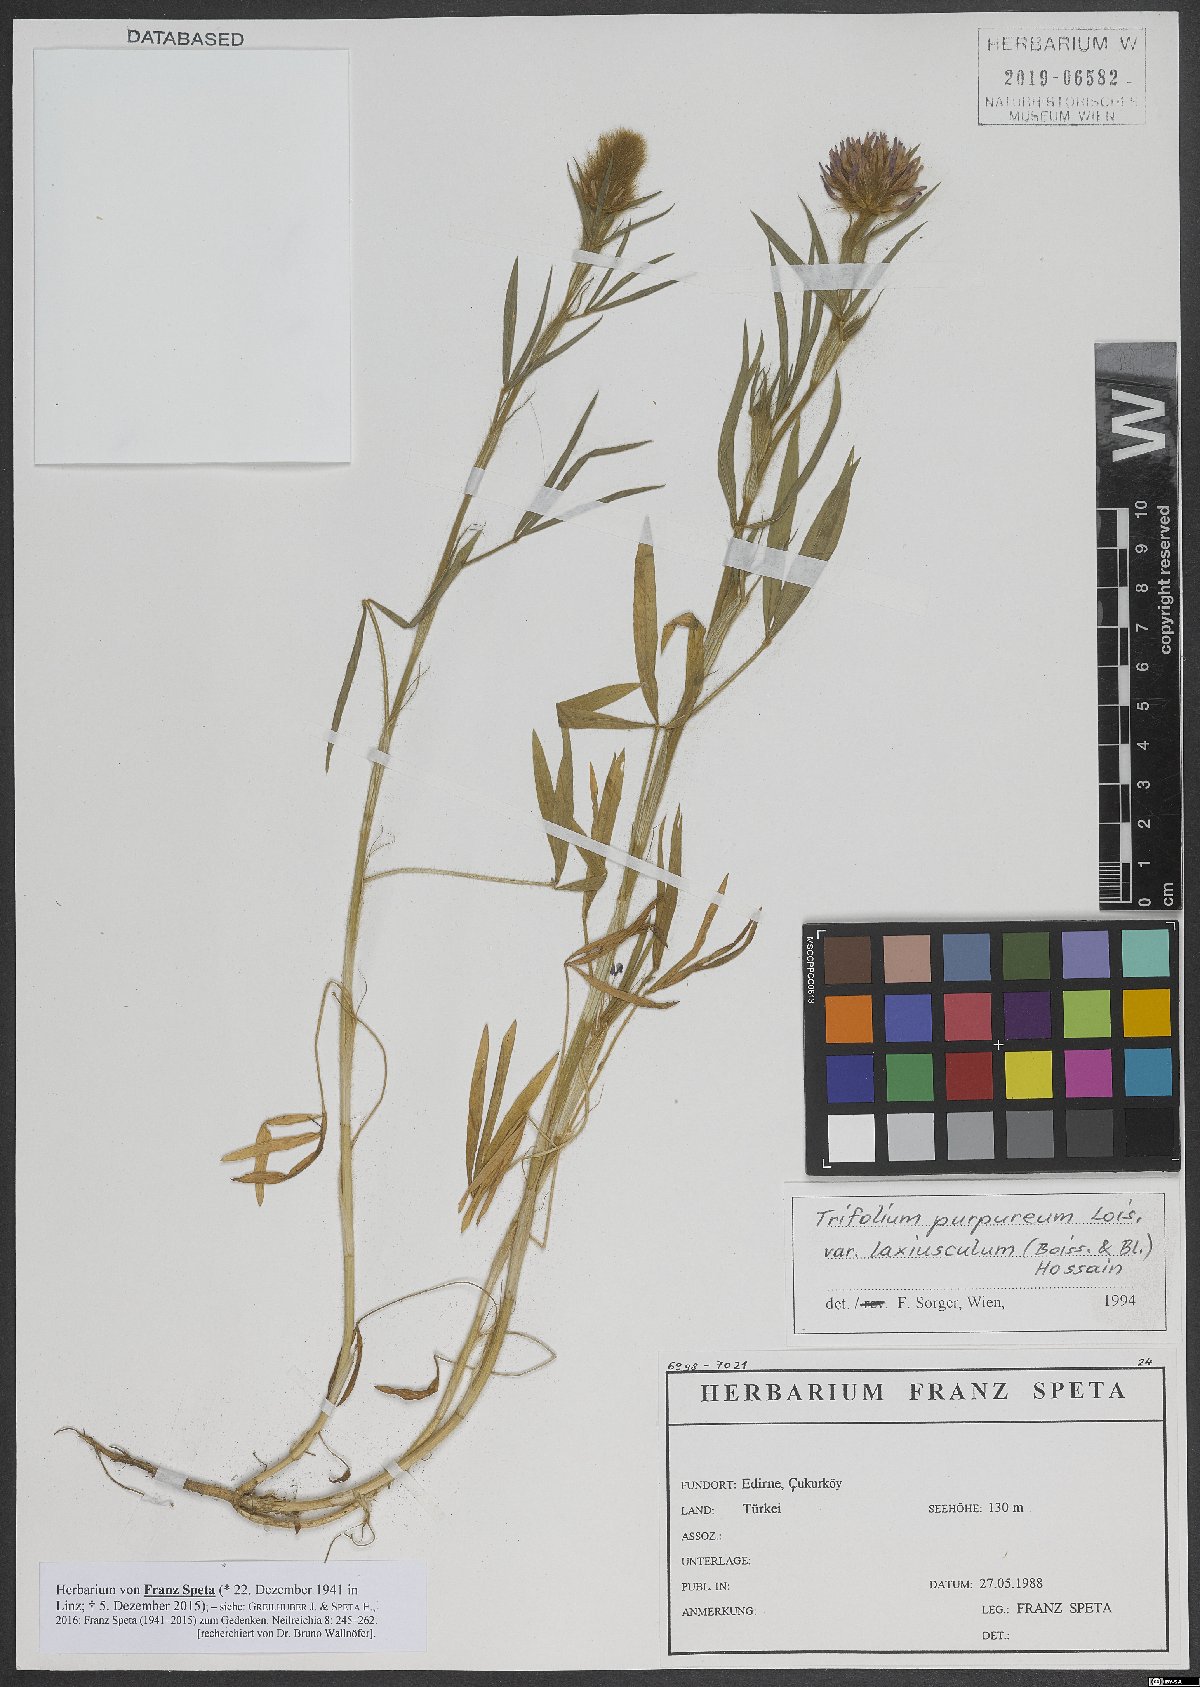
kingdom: Plantae
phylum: Tracheophyta
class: Magnoliopsida
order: Fabales
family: Fabaceae
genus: Trifolium
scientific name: Trifolium purpureum
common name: Purple clover
